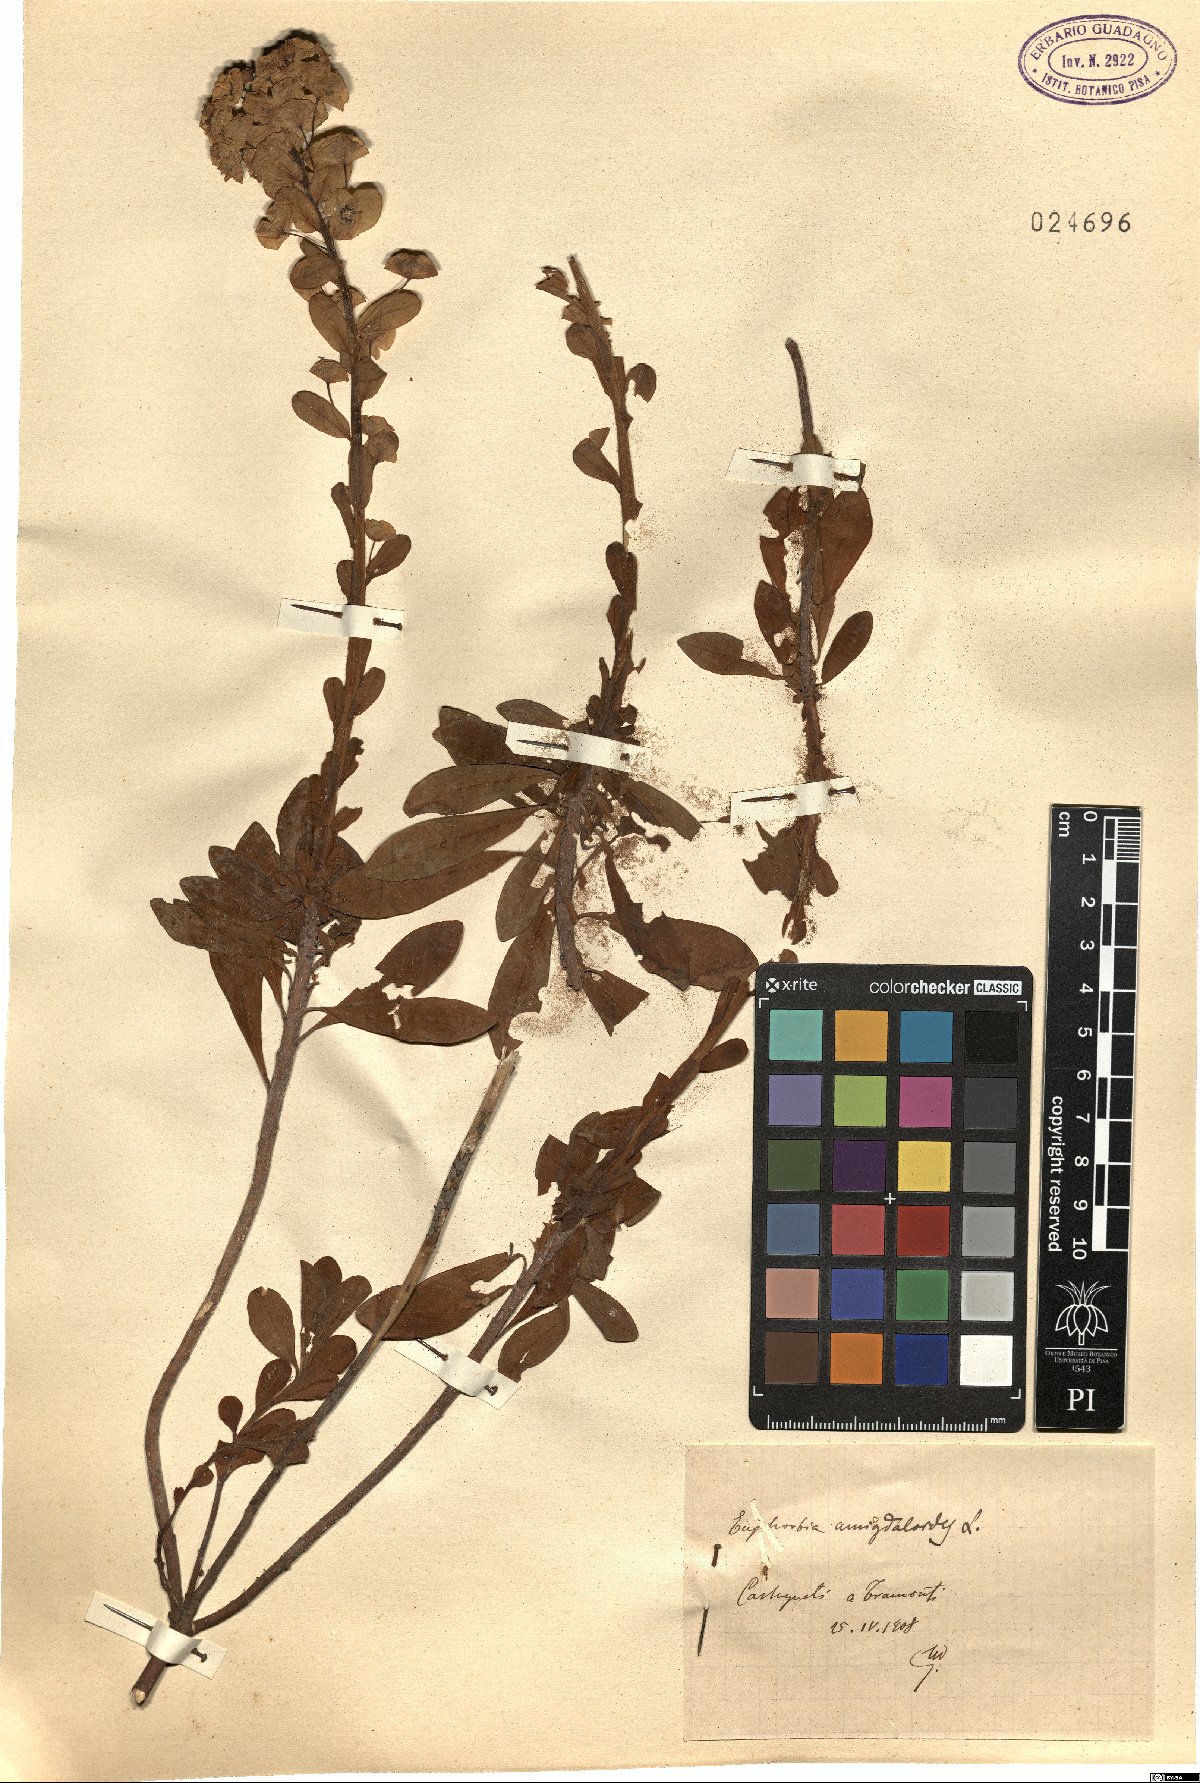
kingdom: Plantae
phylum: Tracheophyta
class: Magnoliopsida
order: Malpighiales
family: Euphorbiaceae
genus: Euphorbia
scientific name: Euphorbia amygdaloides
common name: Wood spurge
